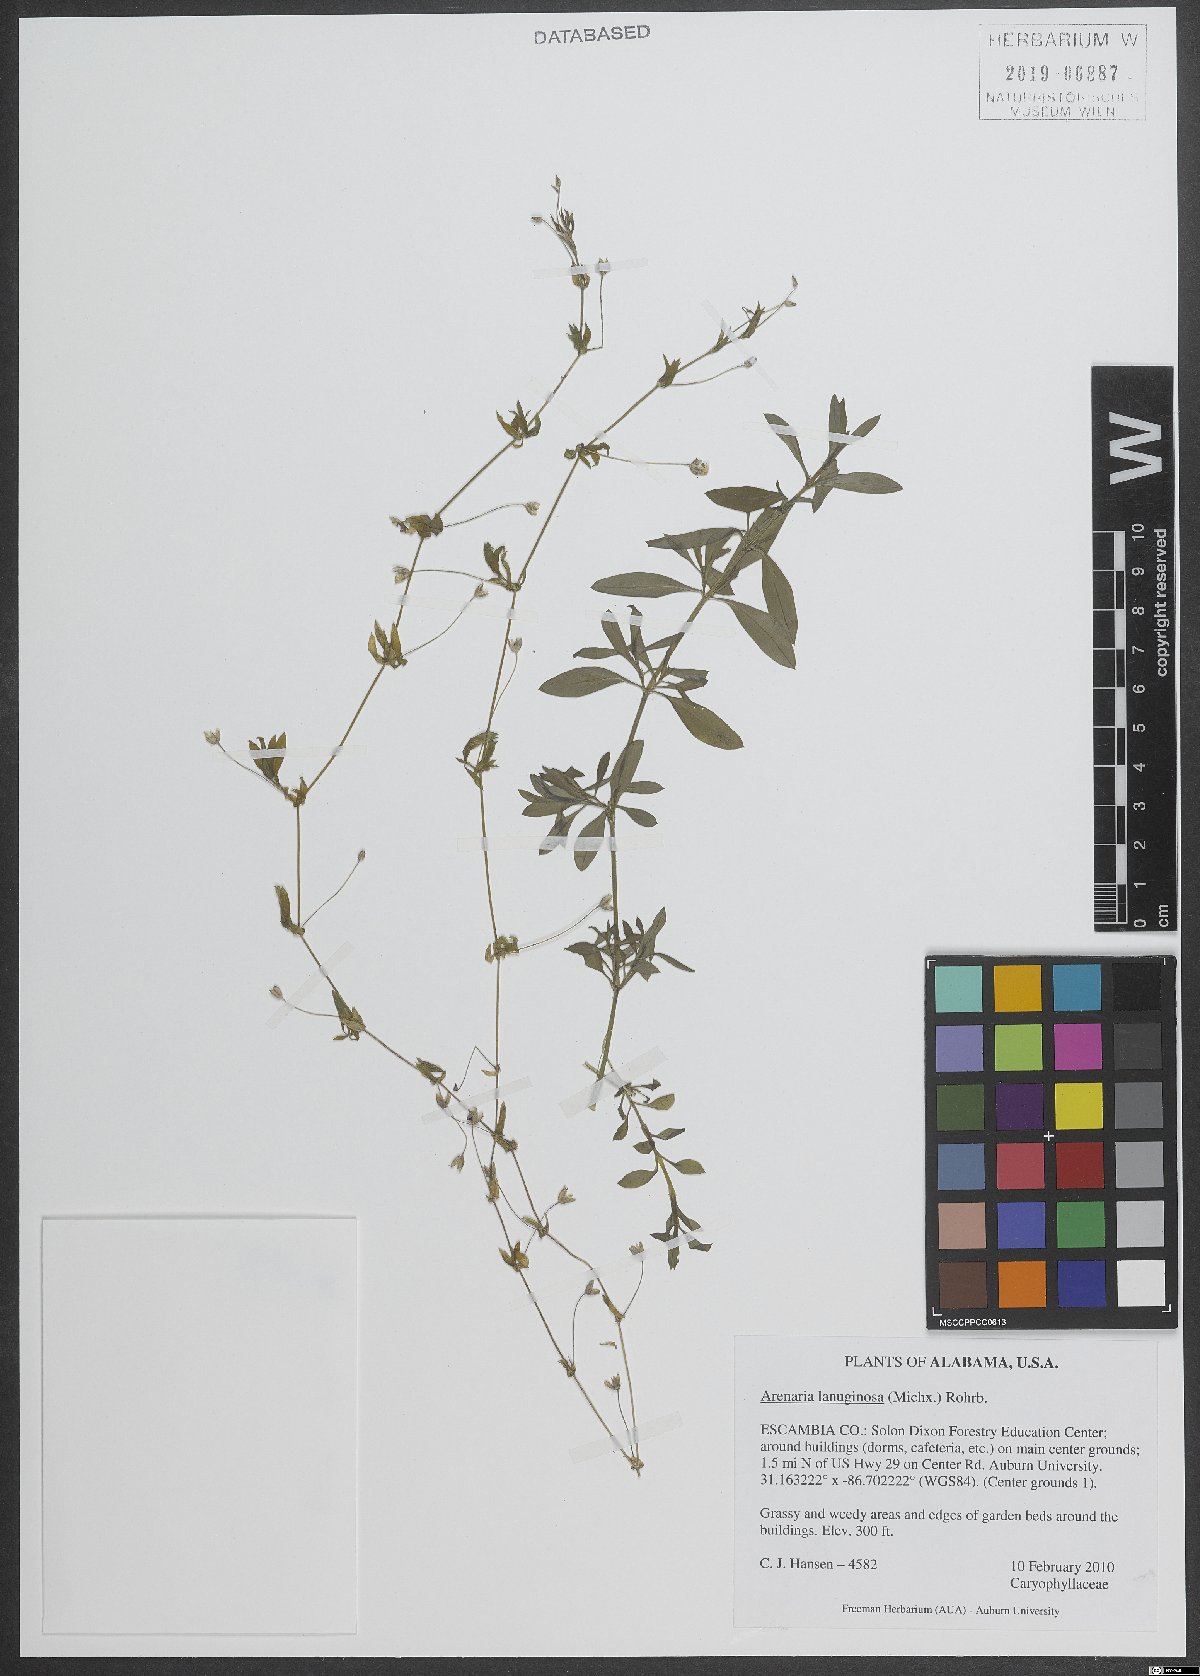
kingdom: Plantae
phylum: Tracheophyta
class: Magnoliopsida
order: Caryophyllales
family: Caryophyllaceae
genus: Arenaria
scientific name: Arenaria lanuginosa
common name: Spread sandwort
